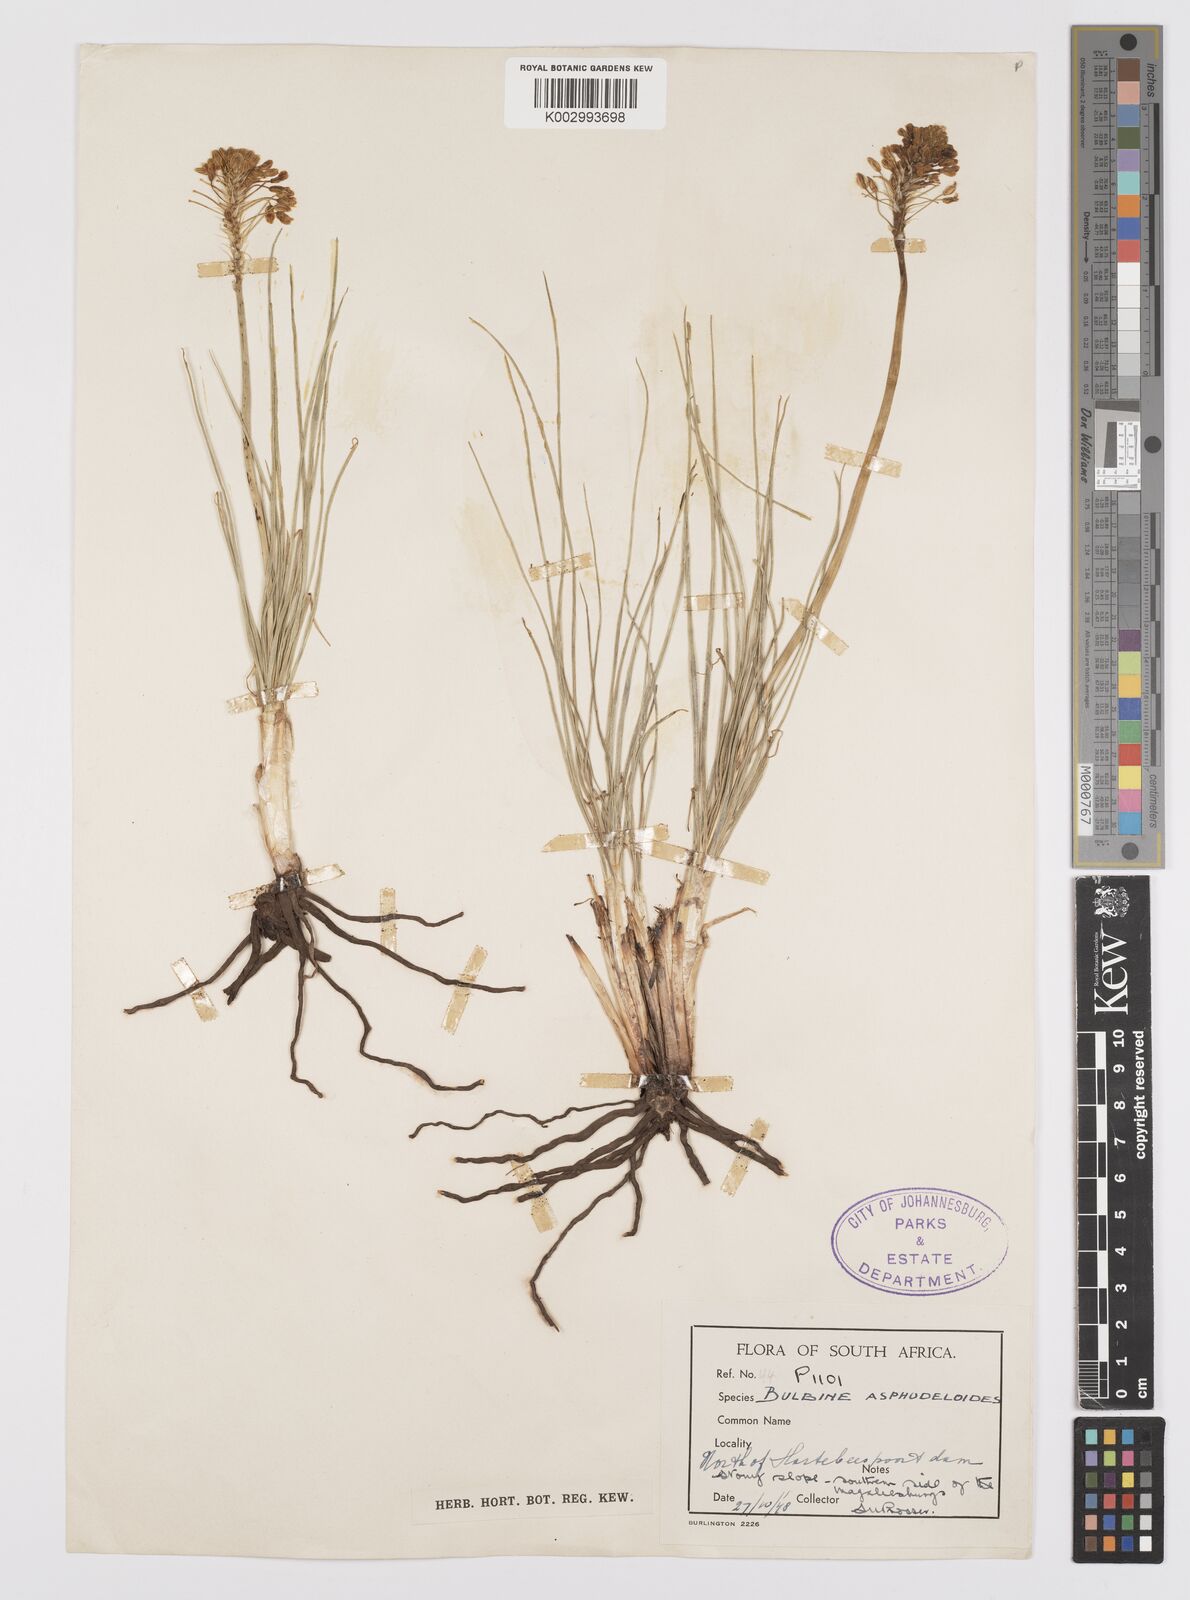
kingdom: Plantae
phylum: Tracheophyta
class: Liliopsida
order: Asparagales
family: Asphodelaceae
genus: Bulbine
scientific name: Bulbine capitata
